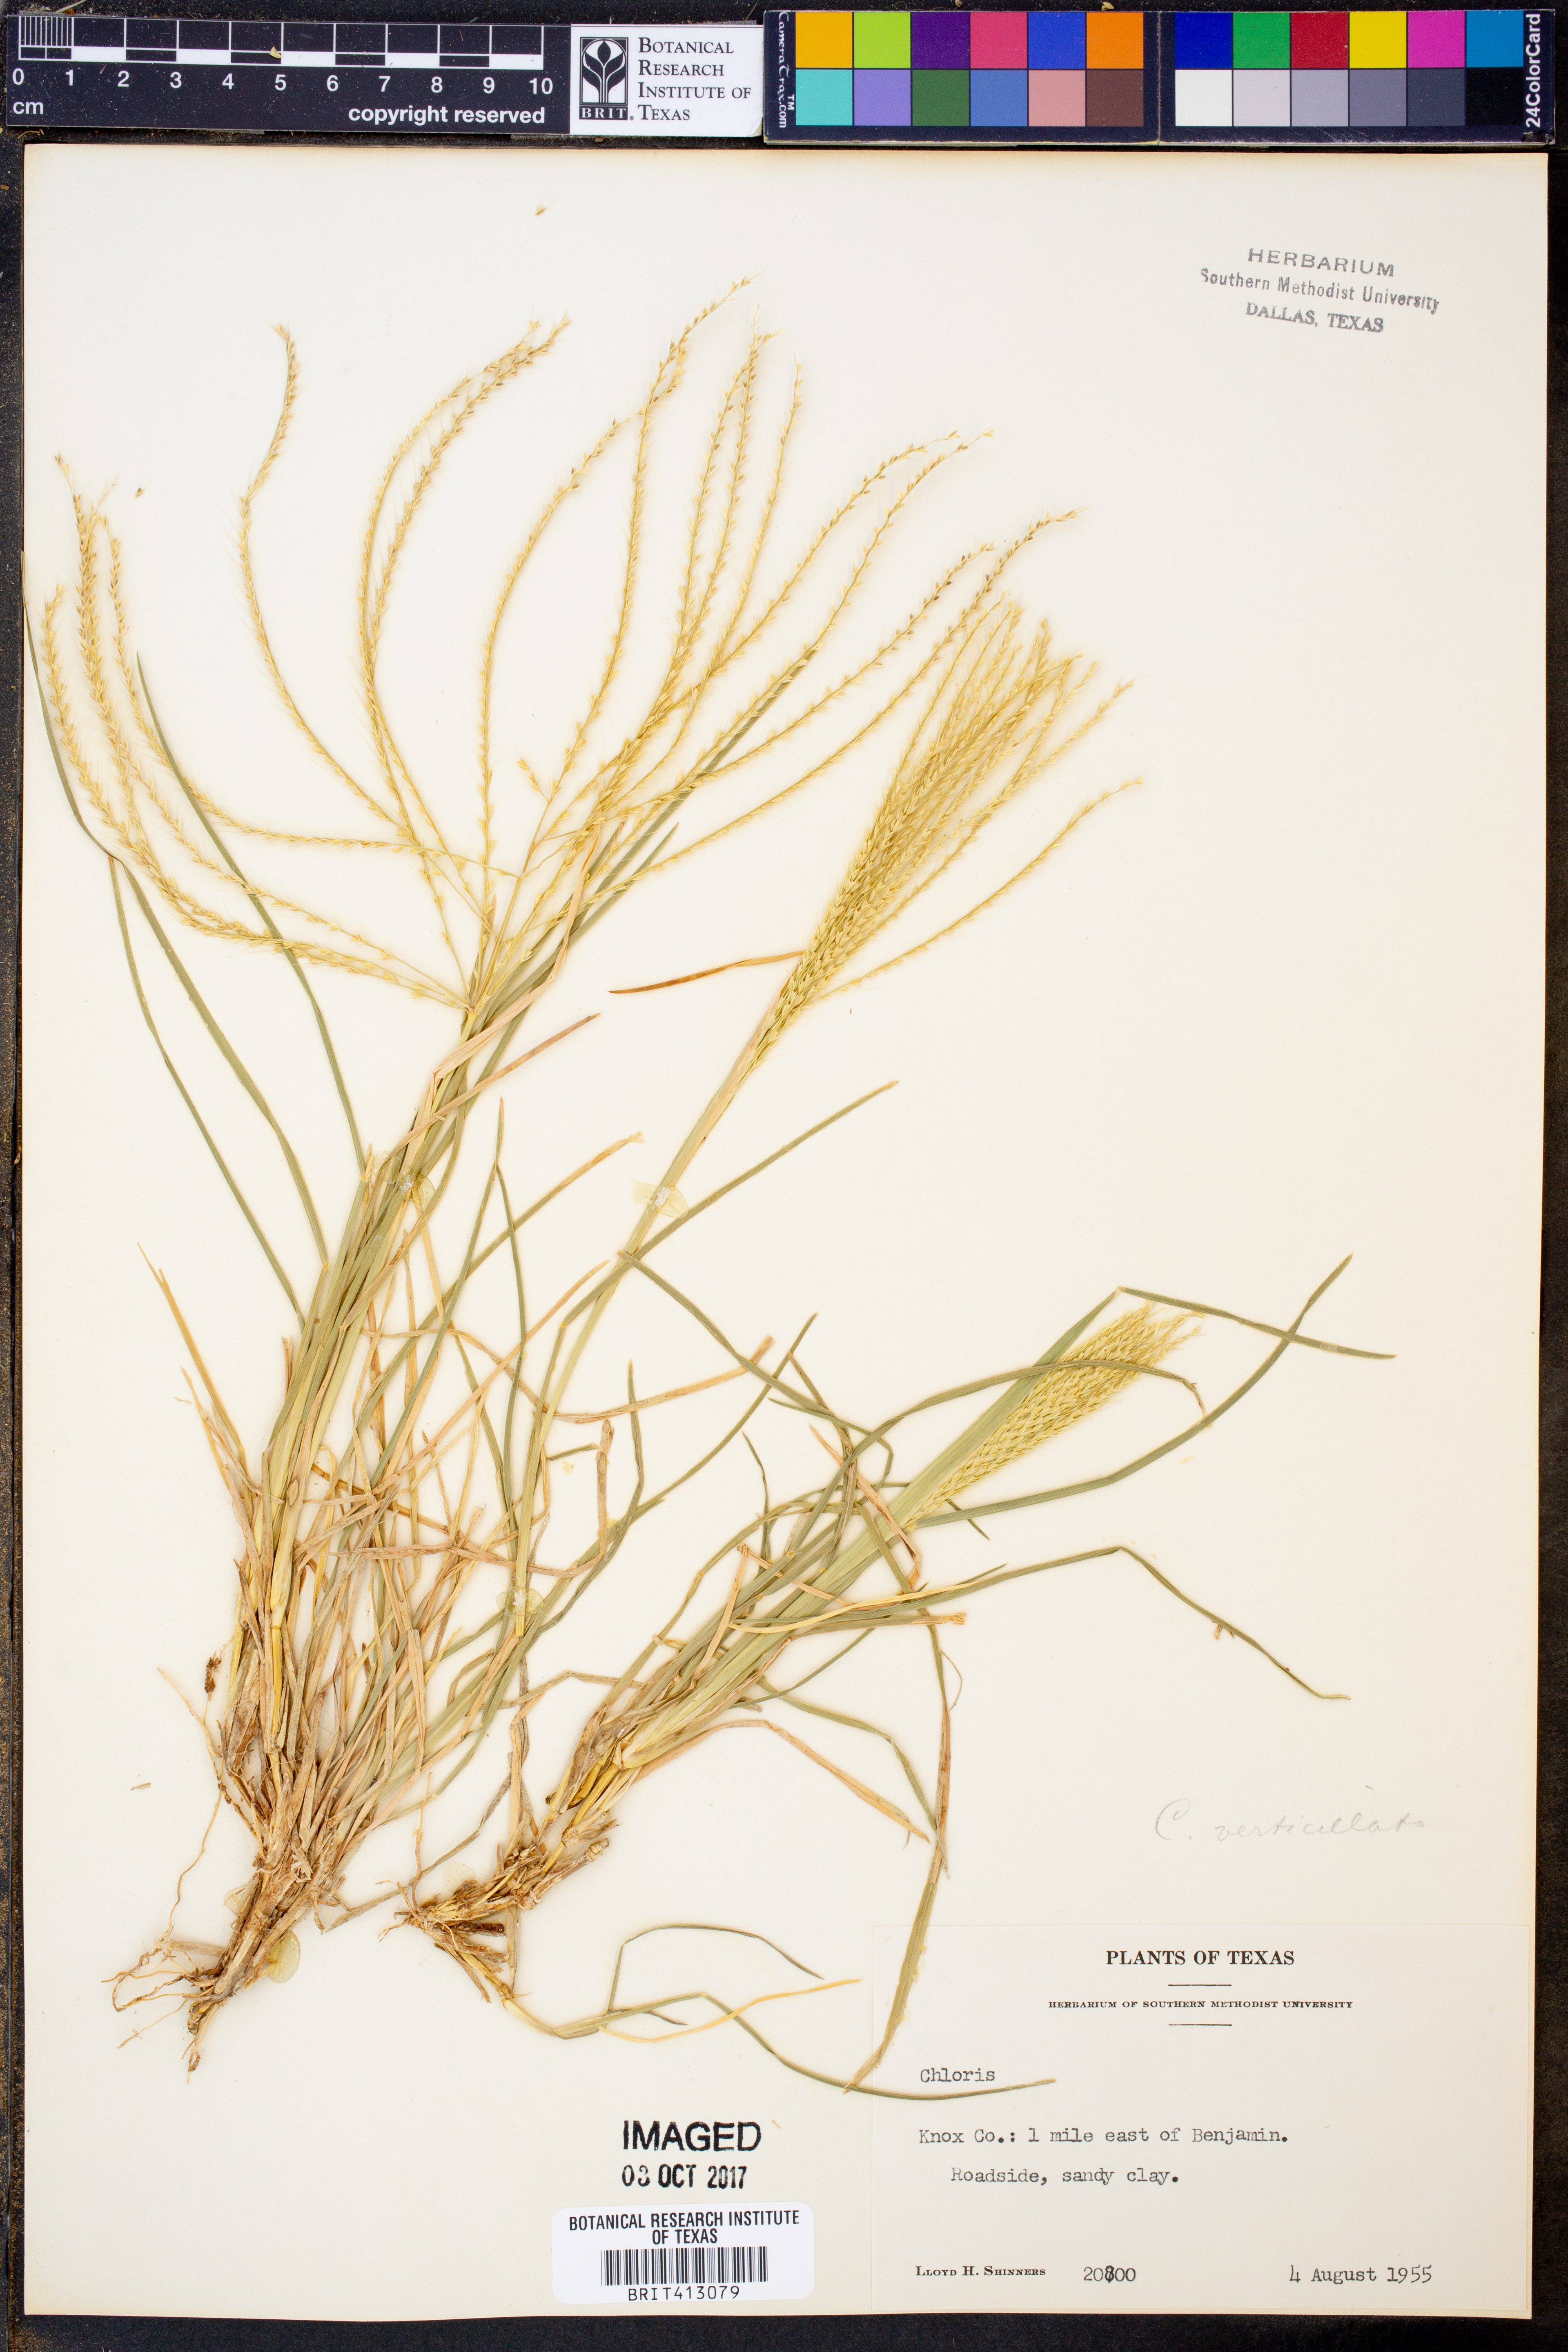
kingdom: Plantae
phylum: Tracheophyta
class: Liliopsida
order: Poales
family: Poaceae
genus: Chloris
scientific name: Chloris
